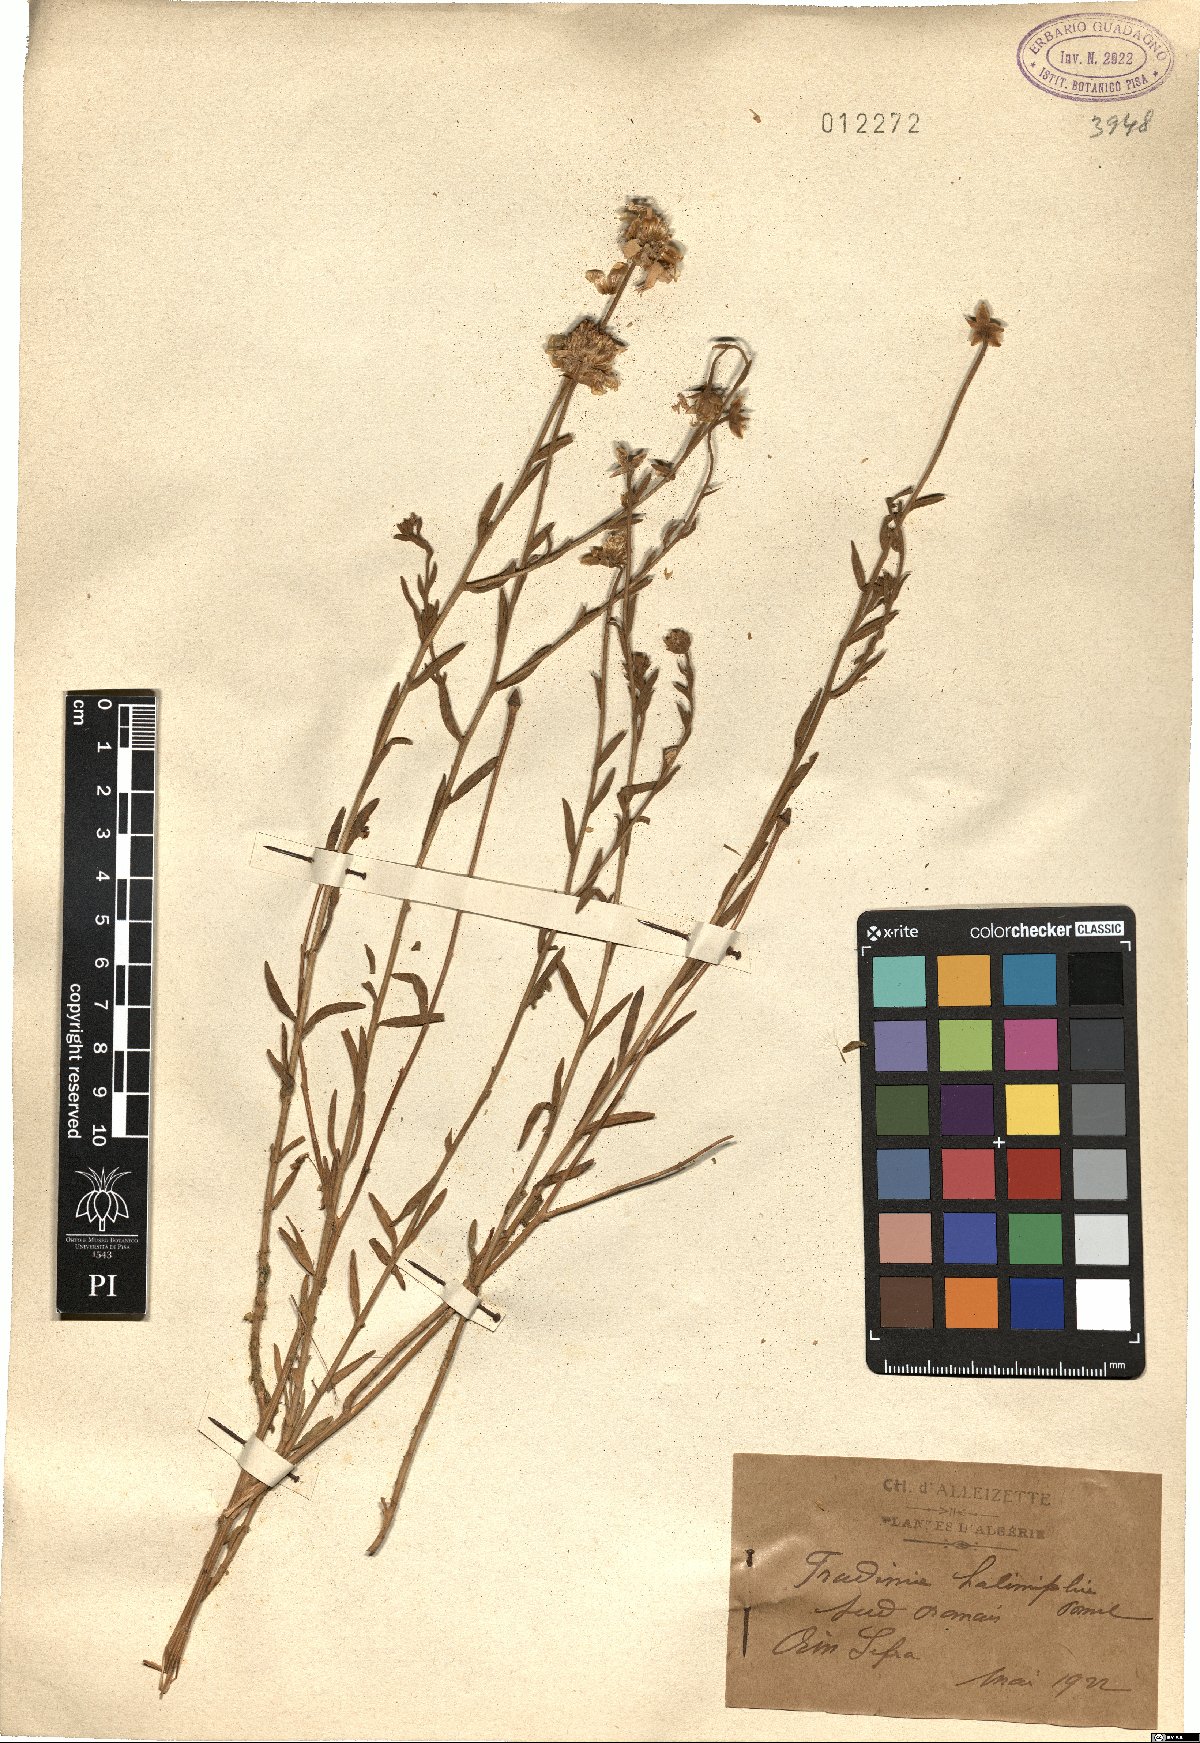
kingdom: Plantae
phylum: Tracheophyta
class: Magnoliopsida
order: Asterales
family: Asteraceae
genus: Mecomischus
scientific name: Mecomischus halimifolius
